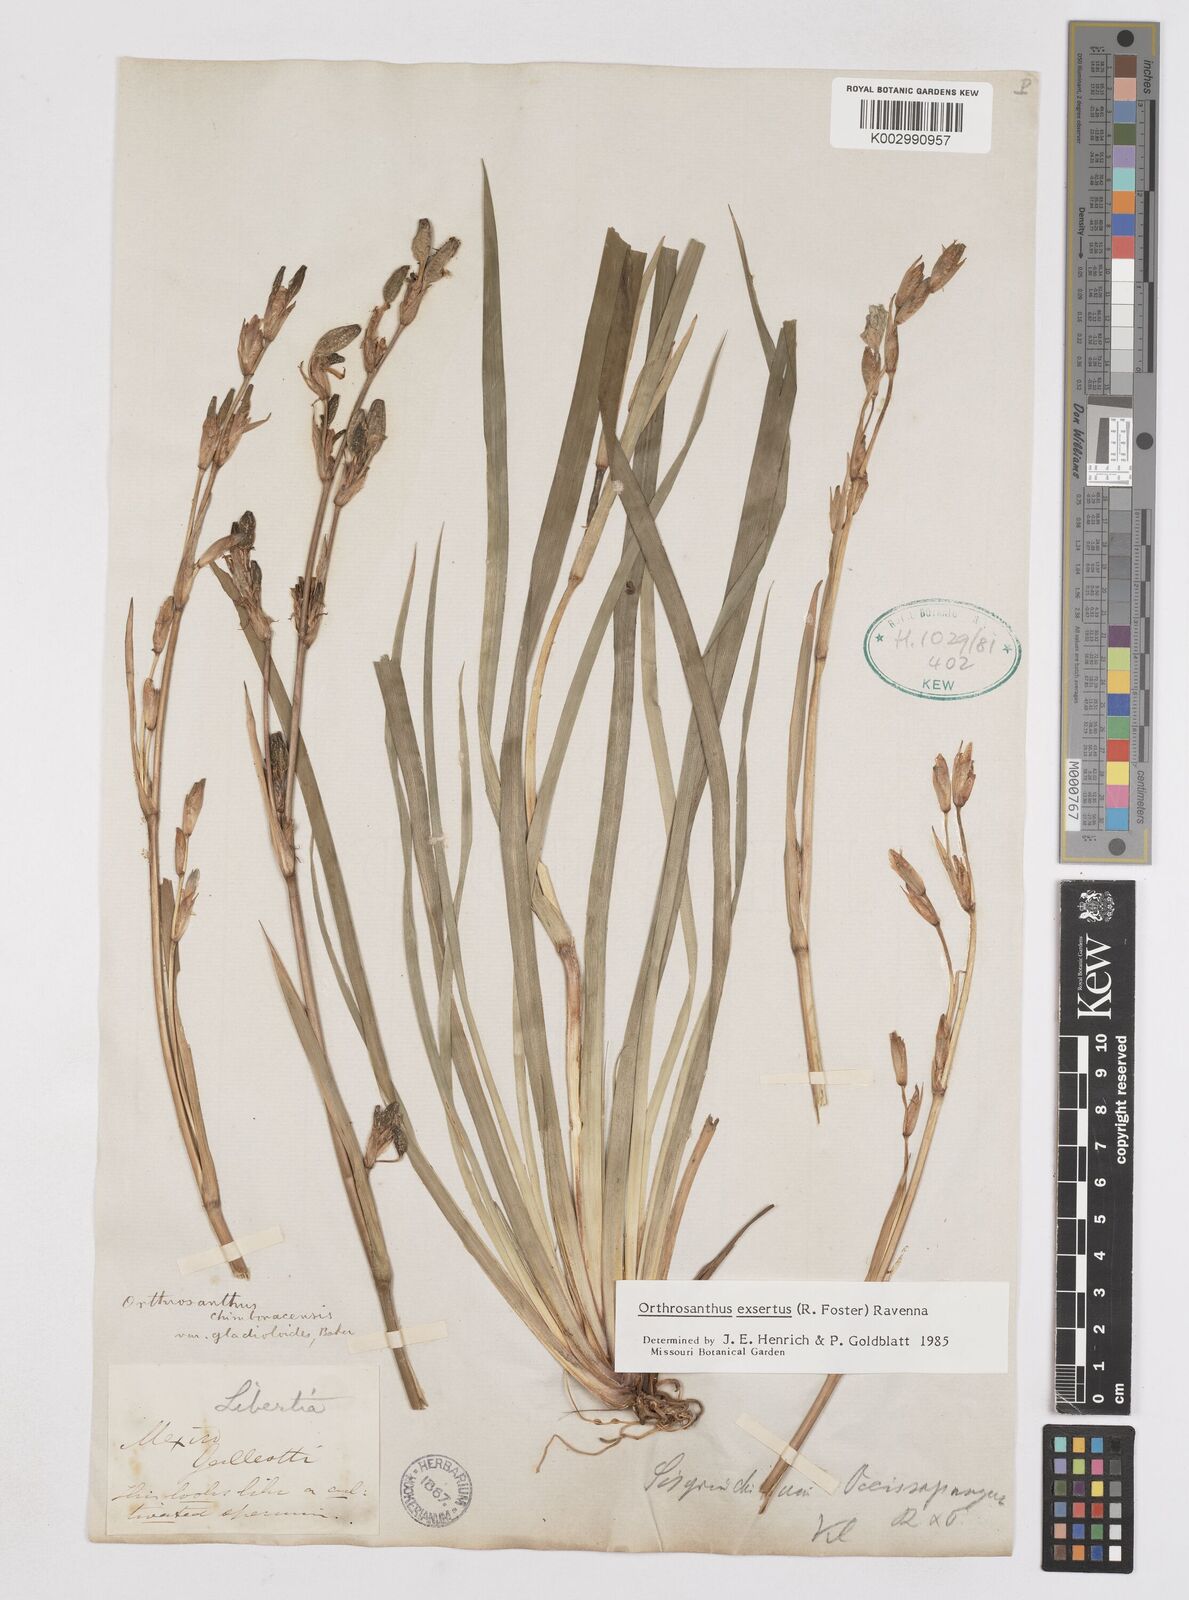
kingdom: Plantae
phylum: Tracheophyta
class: Liliopsida
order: Asparagales
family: Iridaceae
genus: Orthrosanthus
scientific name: Orthrosanthus exsertus
